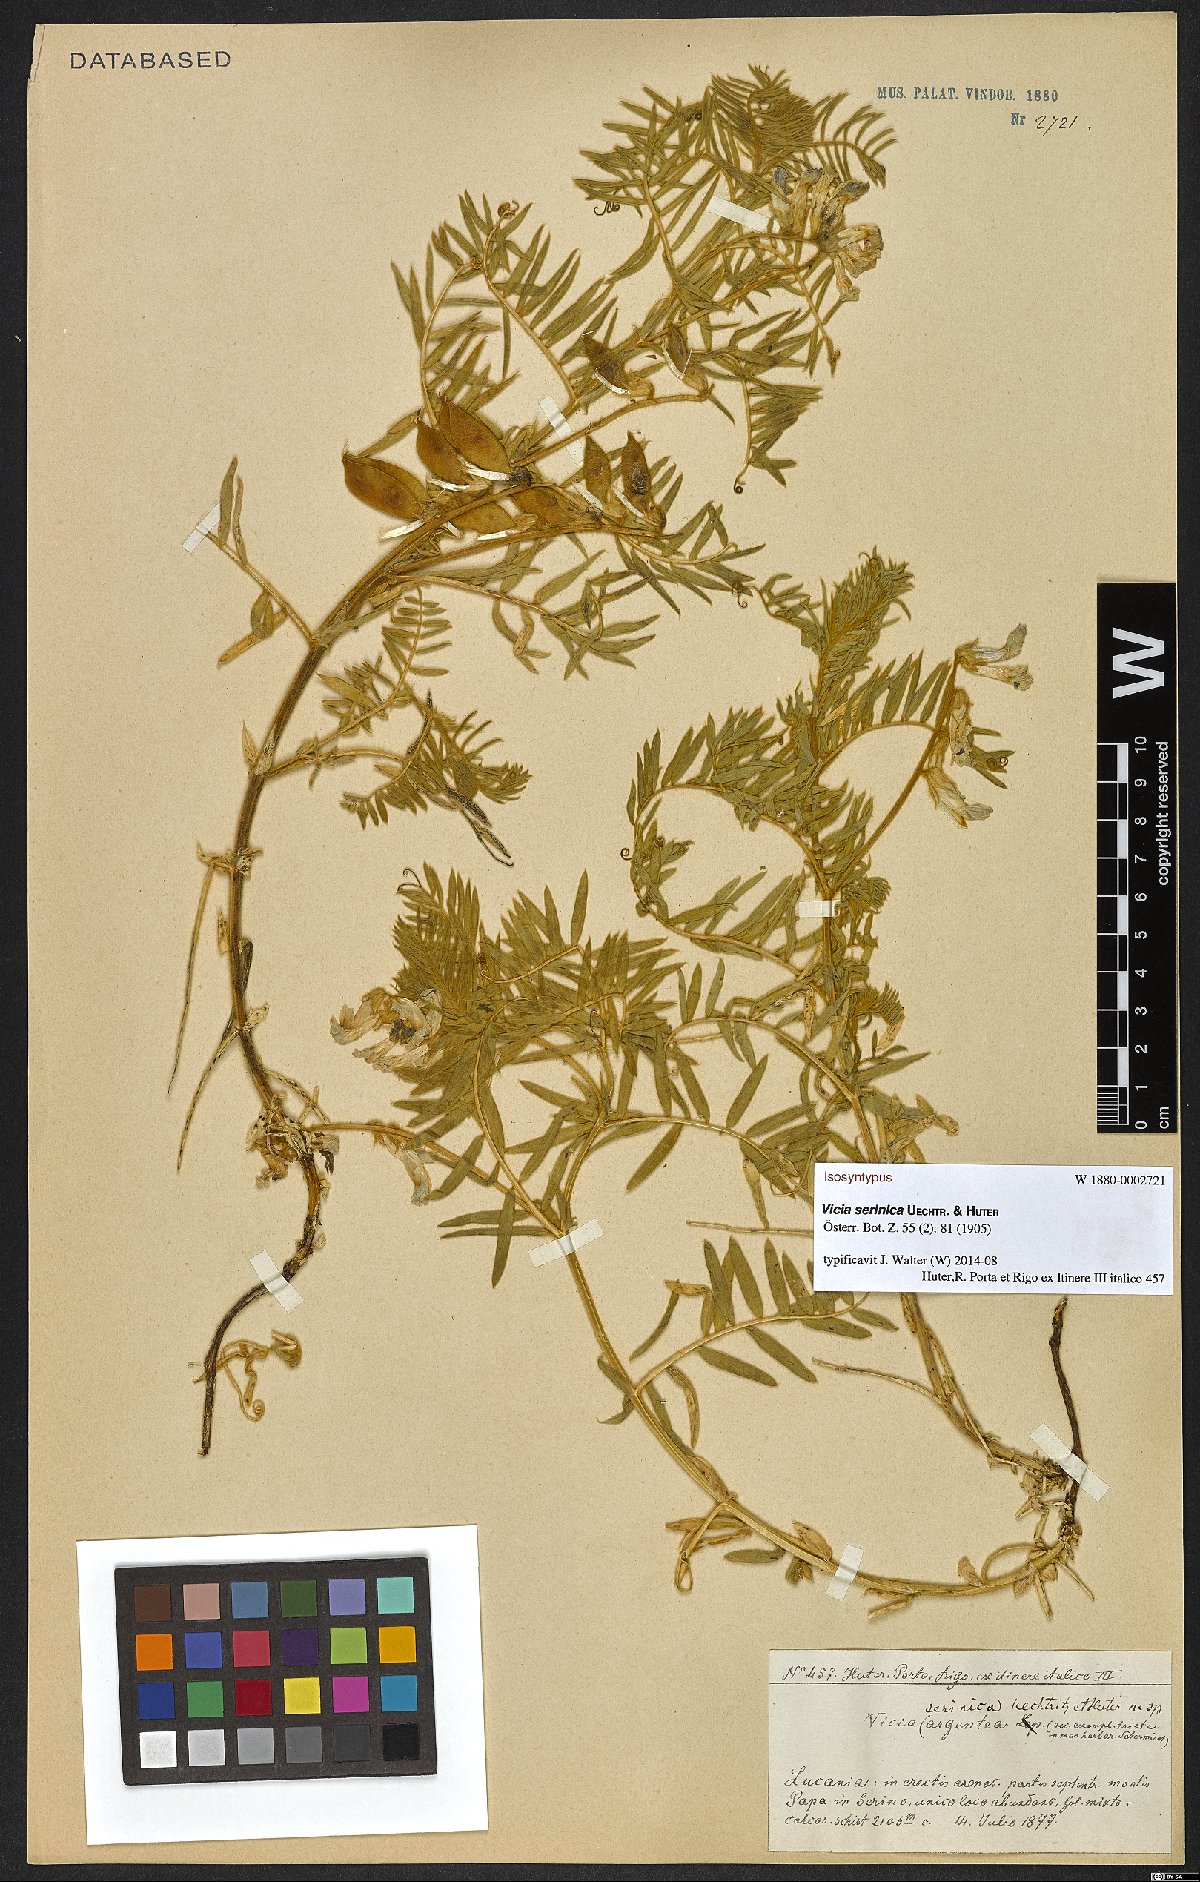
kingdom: Plantae
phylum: Tracheophyta
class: Magnoliopsida
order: Fabales
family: Fabaceae
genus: Vicia
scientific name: Vicia canescens
